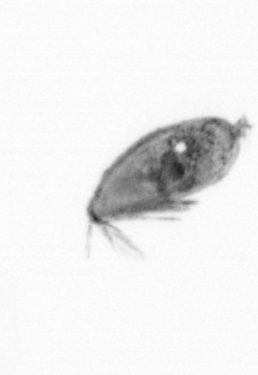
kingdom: Animalia
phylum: Arthropoda
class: Maxillopoda
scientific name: Maxillopoda
